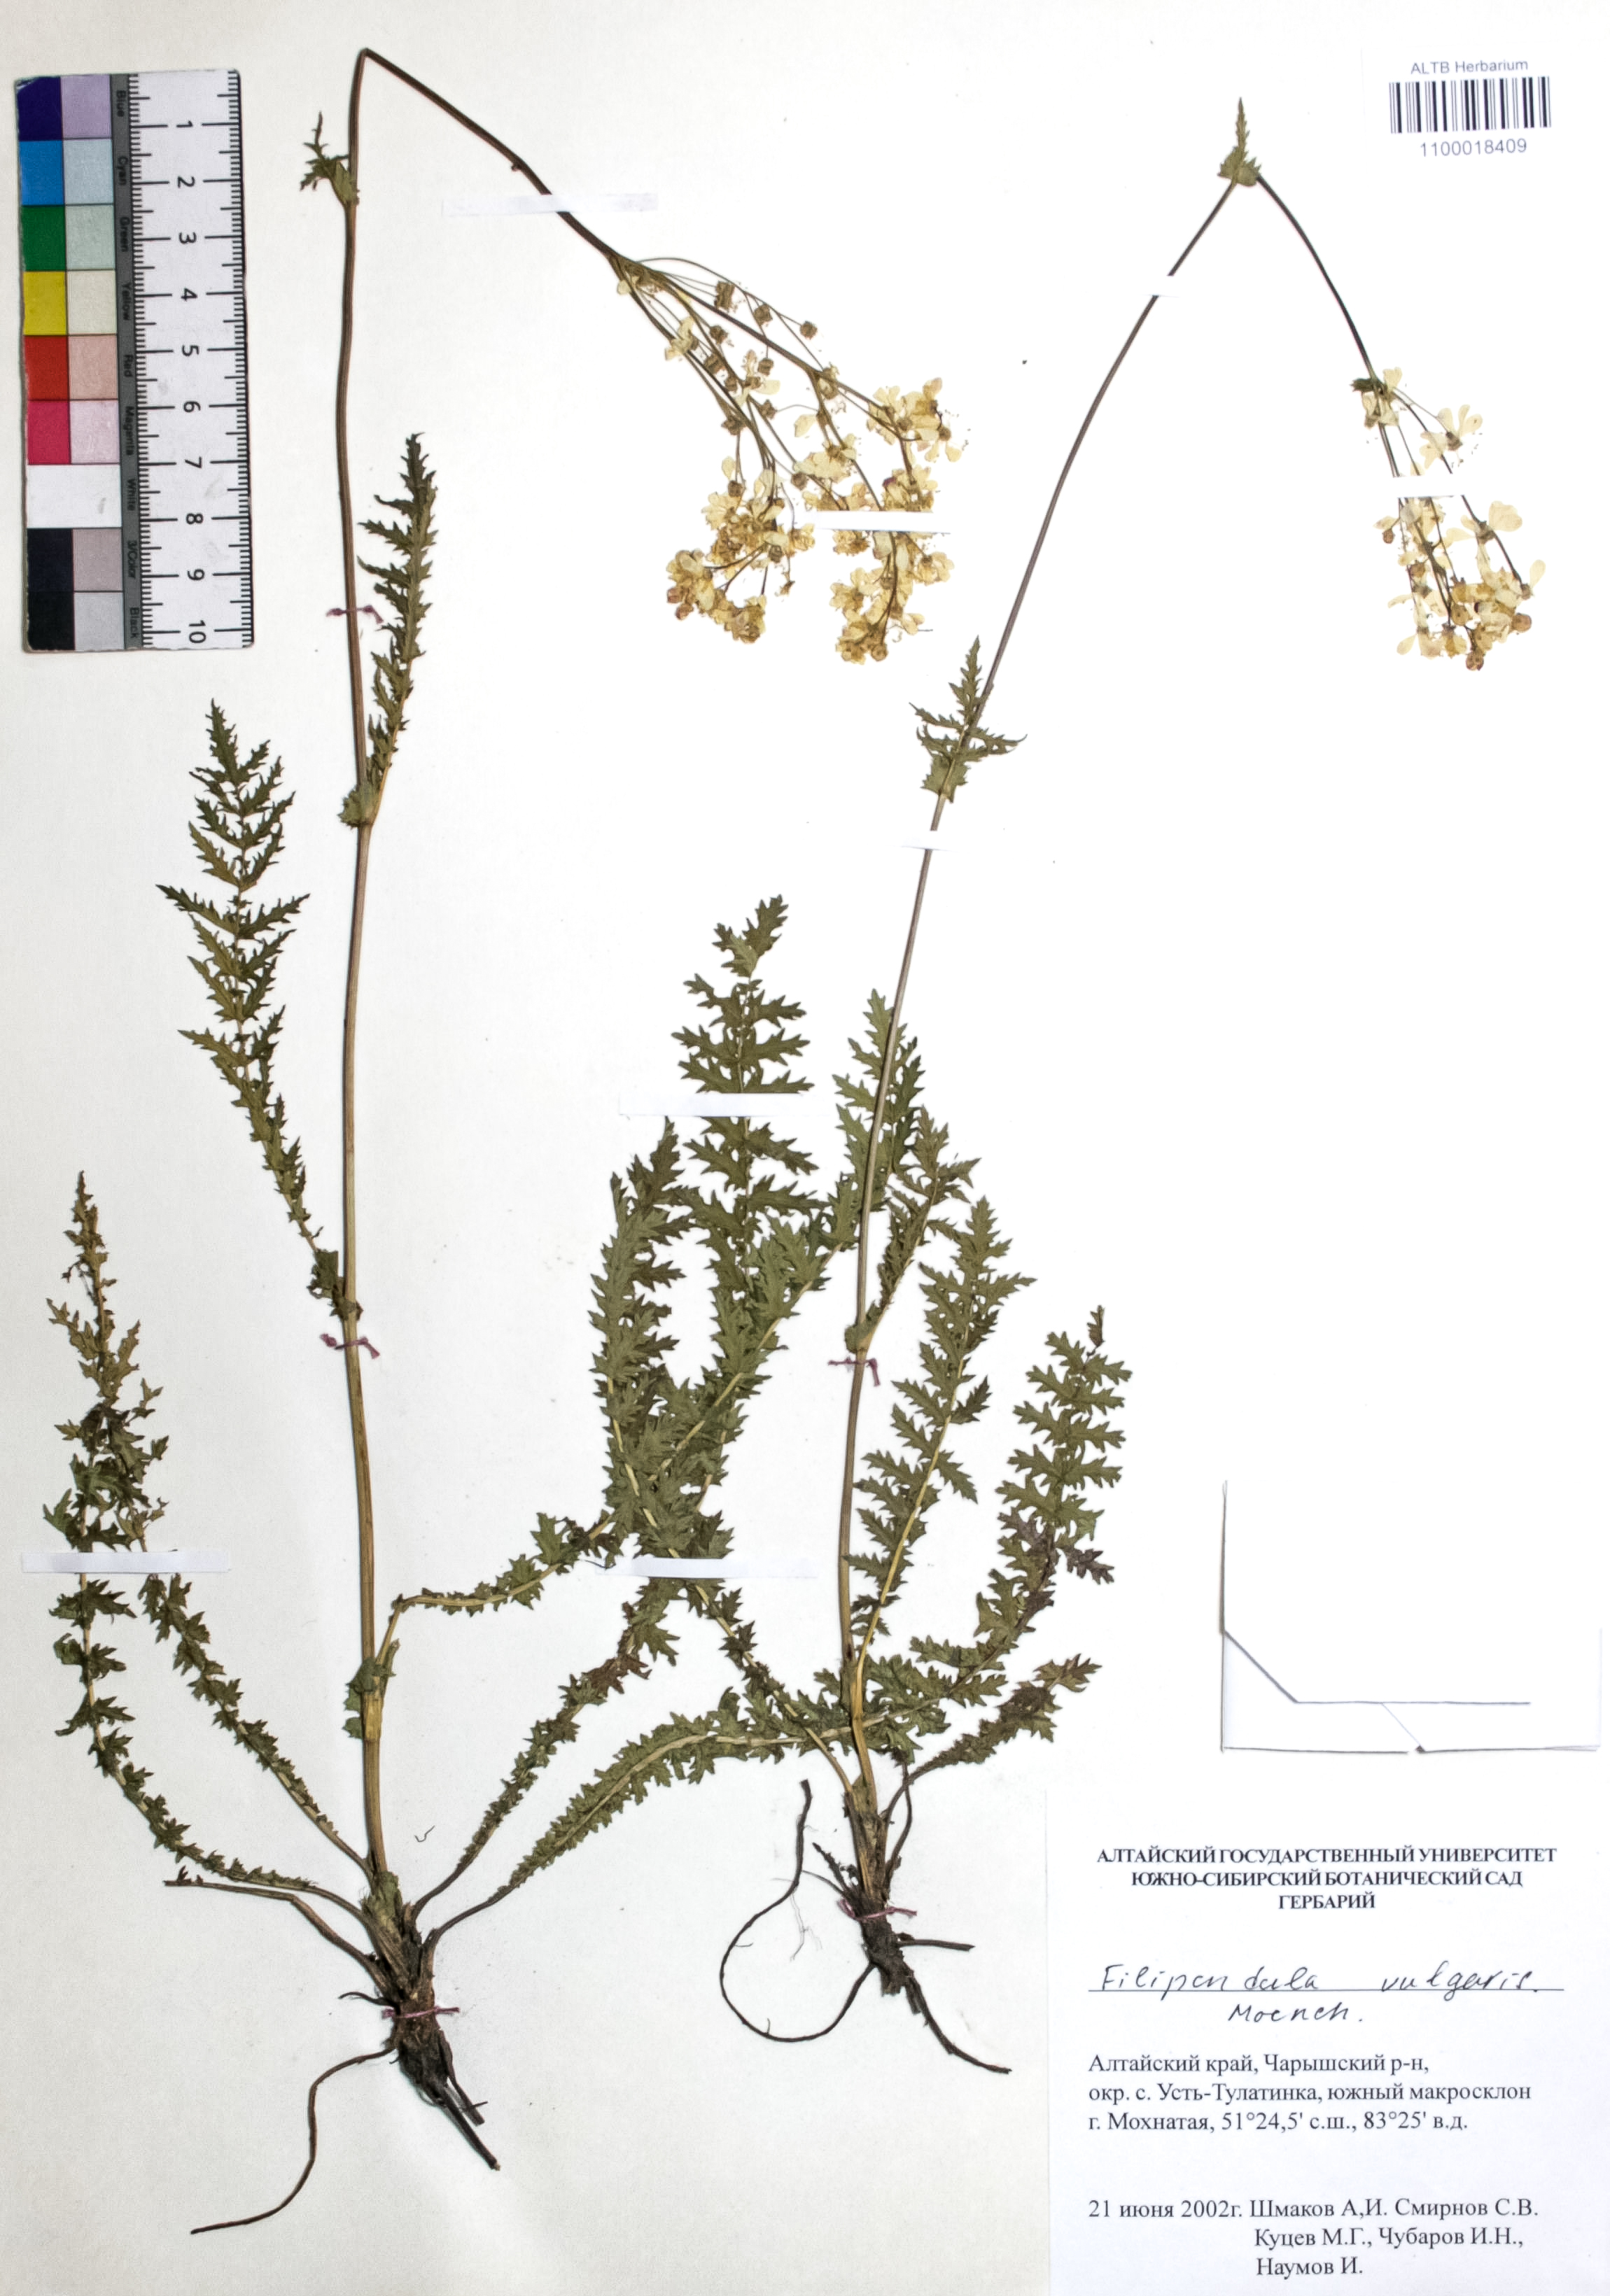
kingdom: Plantae
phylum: Tracheophyta
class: Magnoliopsida
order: Rosales
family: Rosaceae
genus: Filipendula
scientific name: Filipendula vulgaris
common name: Dropwort
